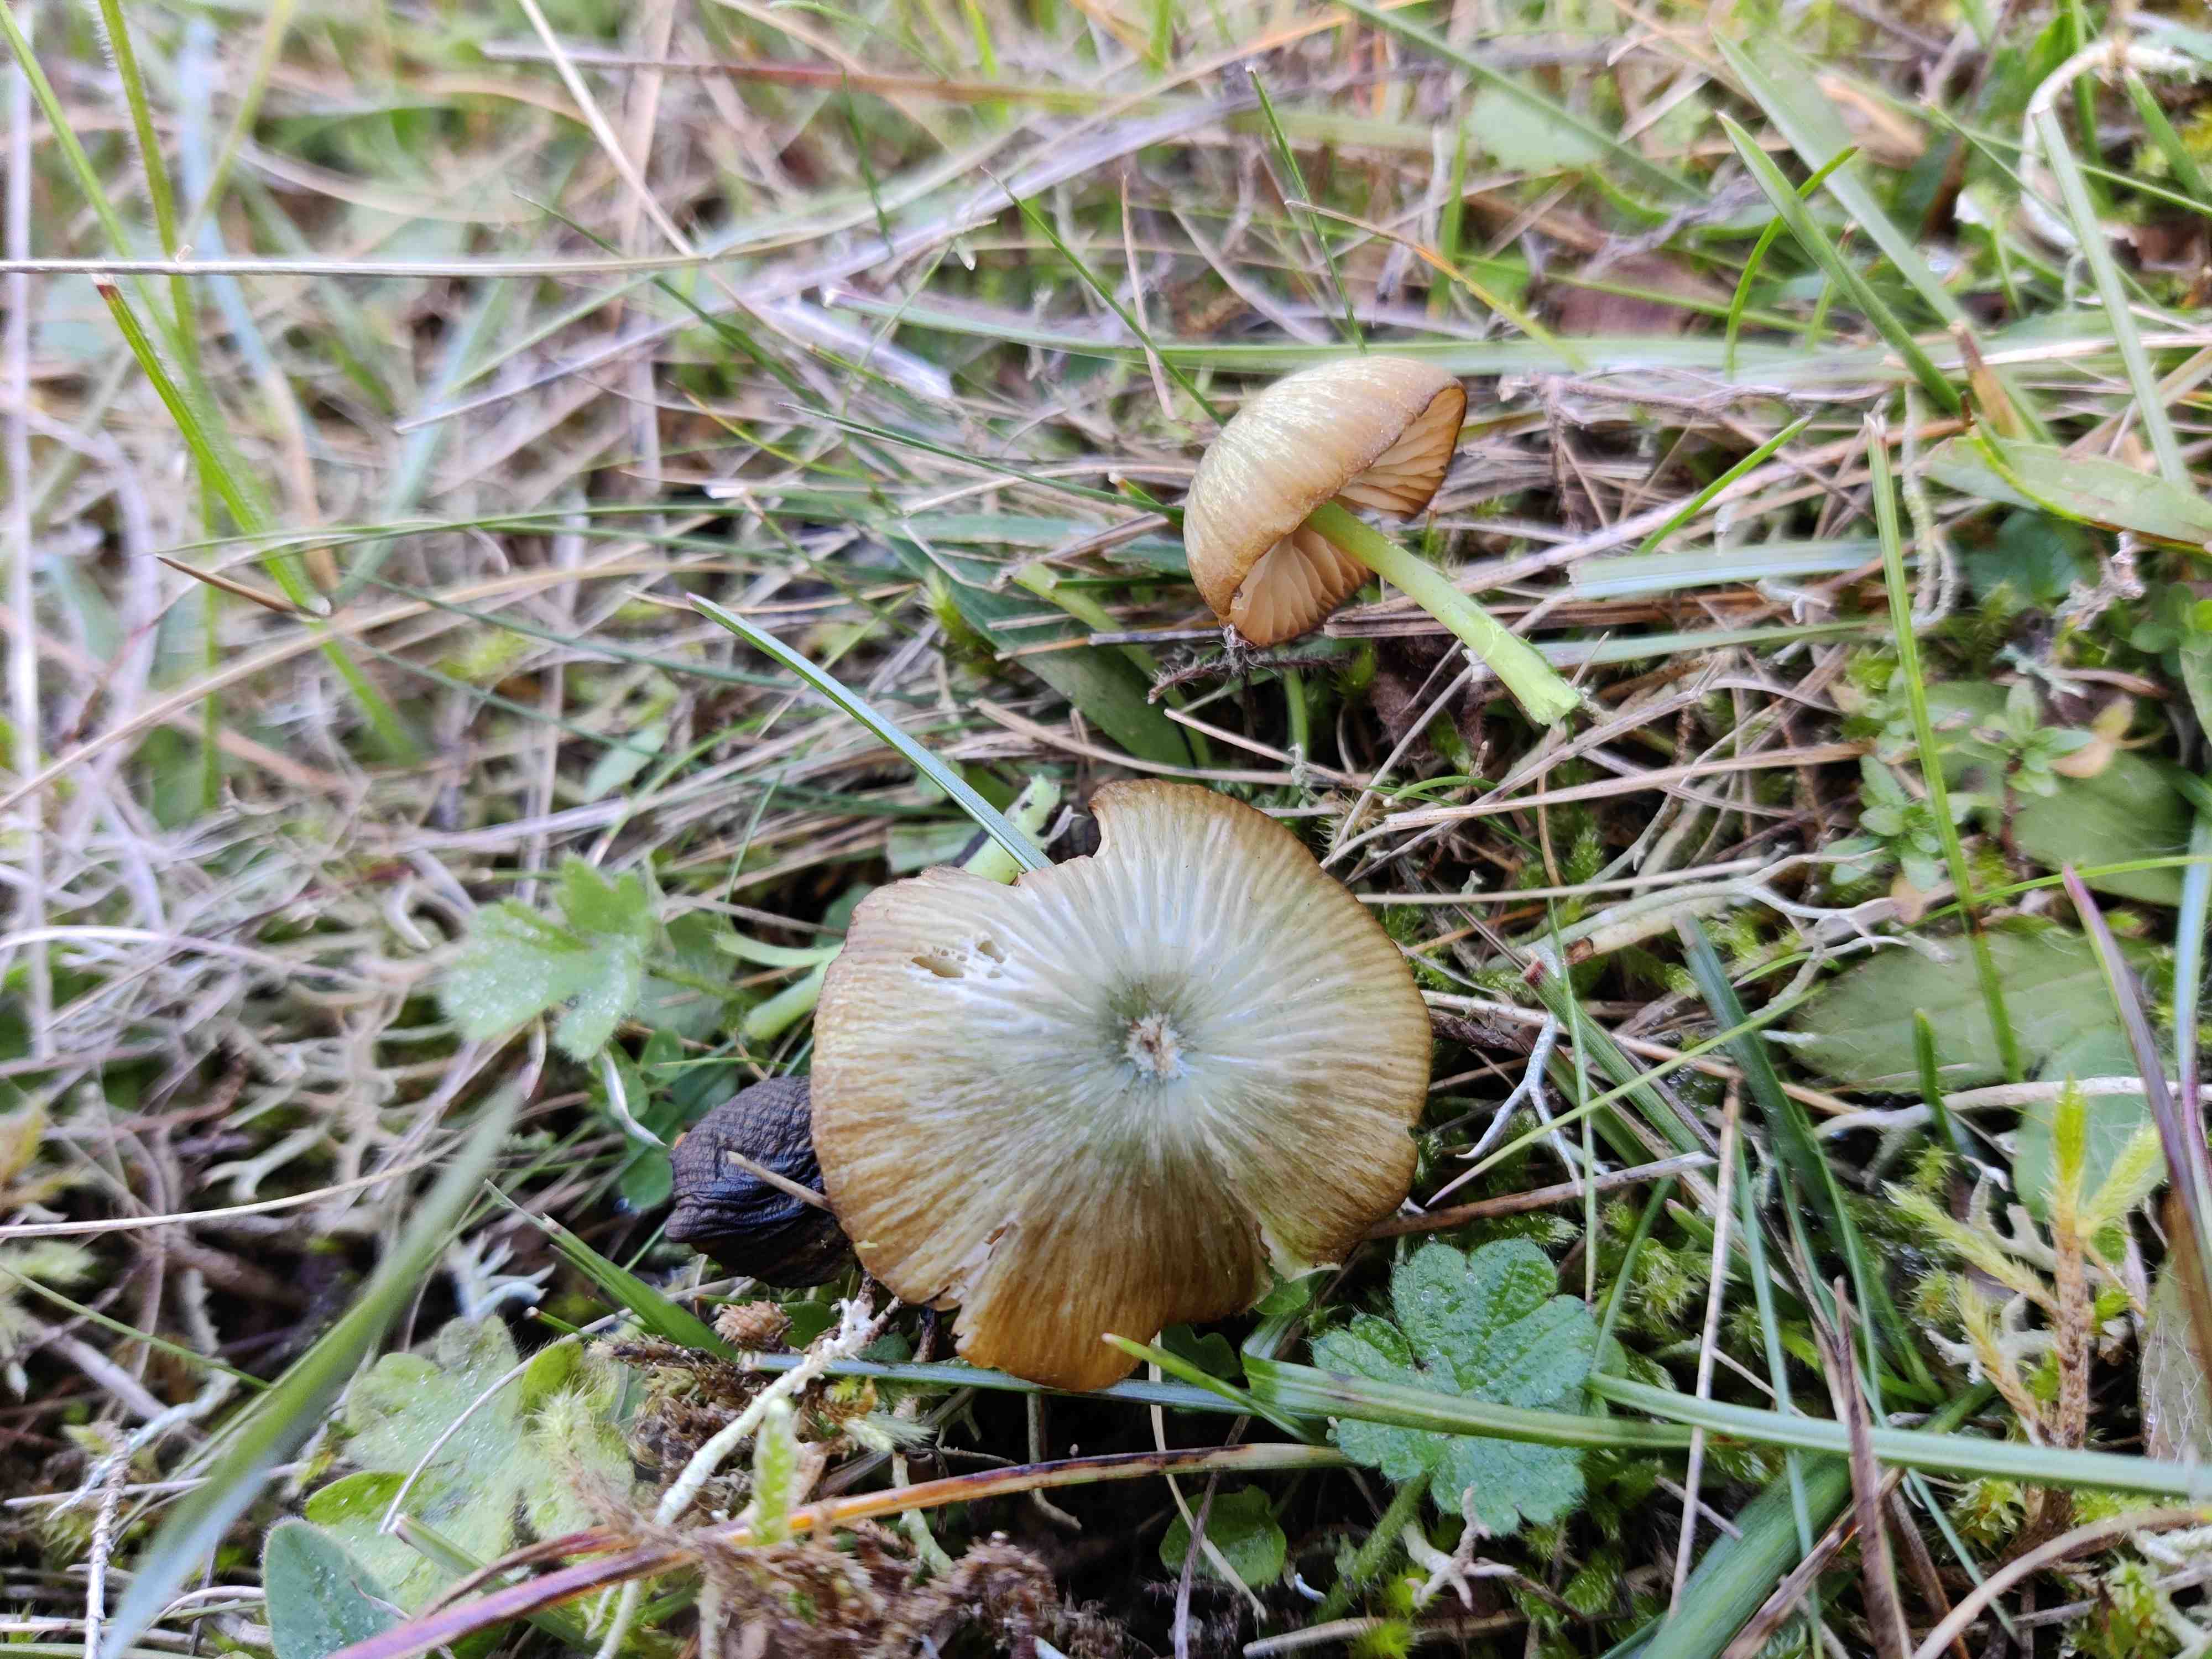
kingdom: Fungi
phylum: Basidiomycota
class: Agaricomycetes
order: Agaricales
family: Entolomataceae
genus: Entoloma
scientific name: Entoloma incanum
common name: grøngul rødblad
